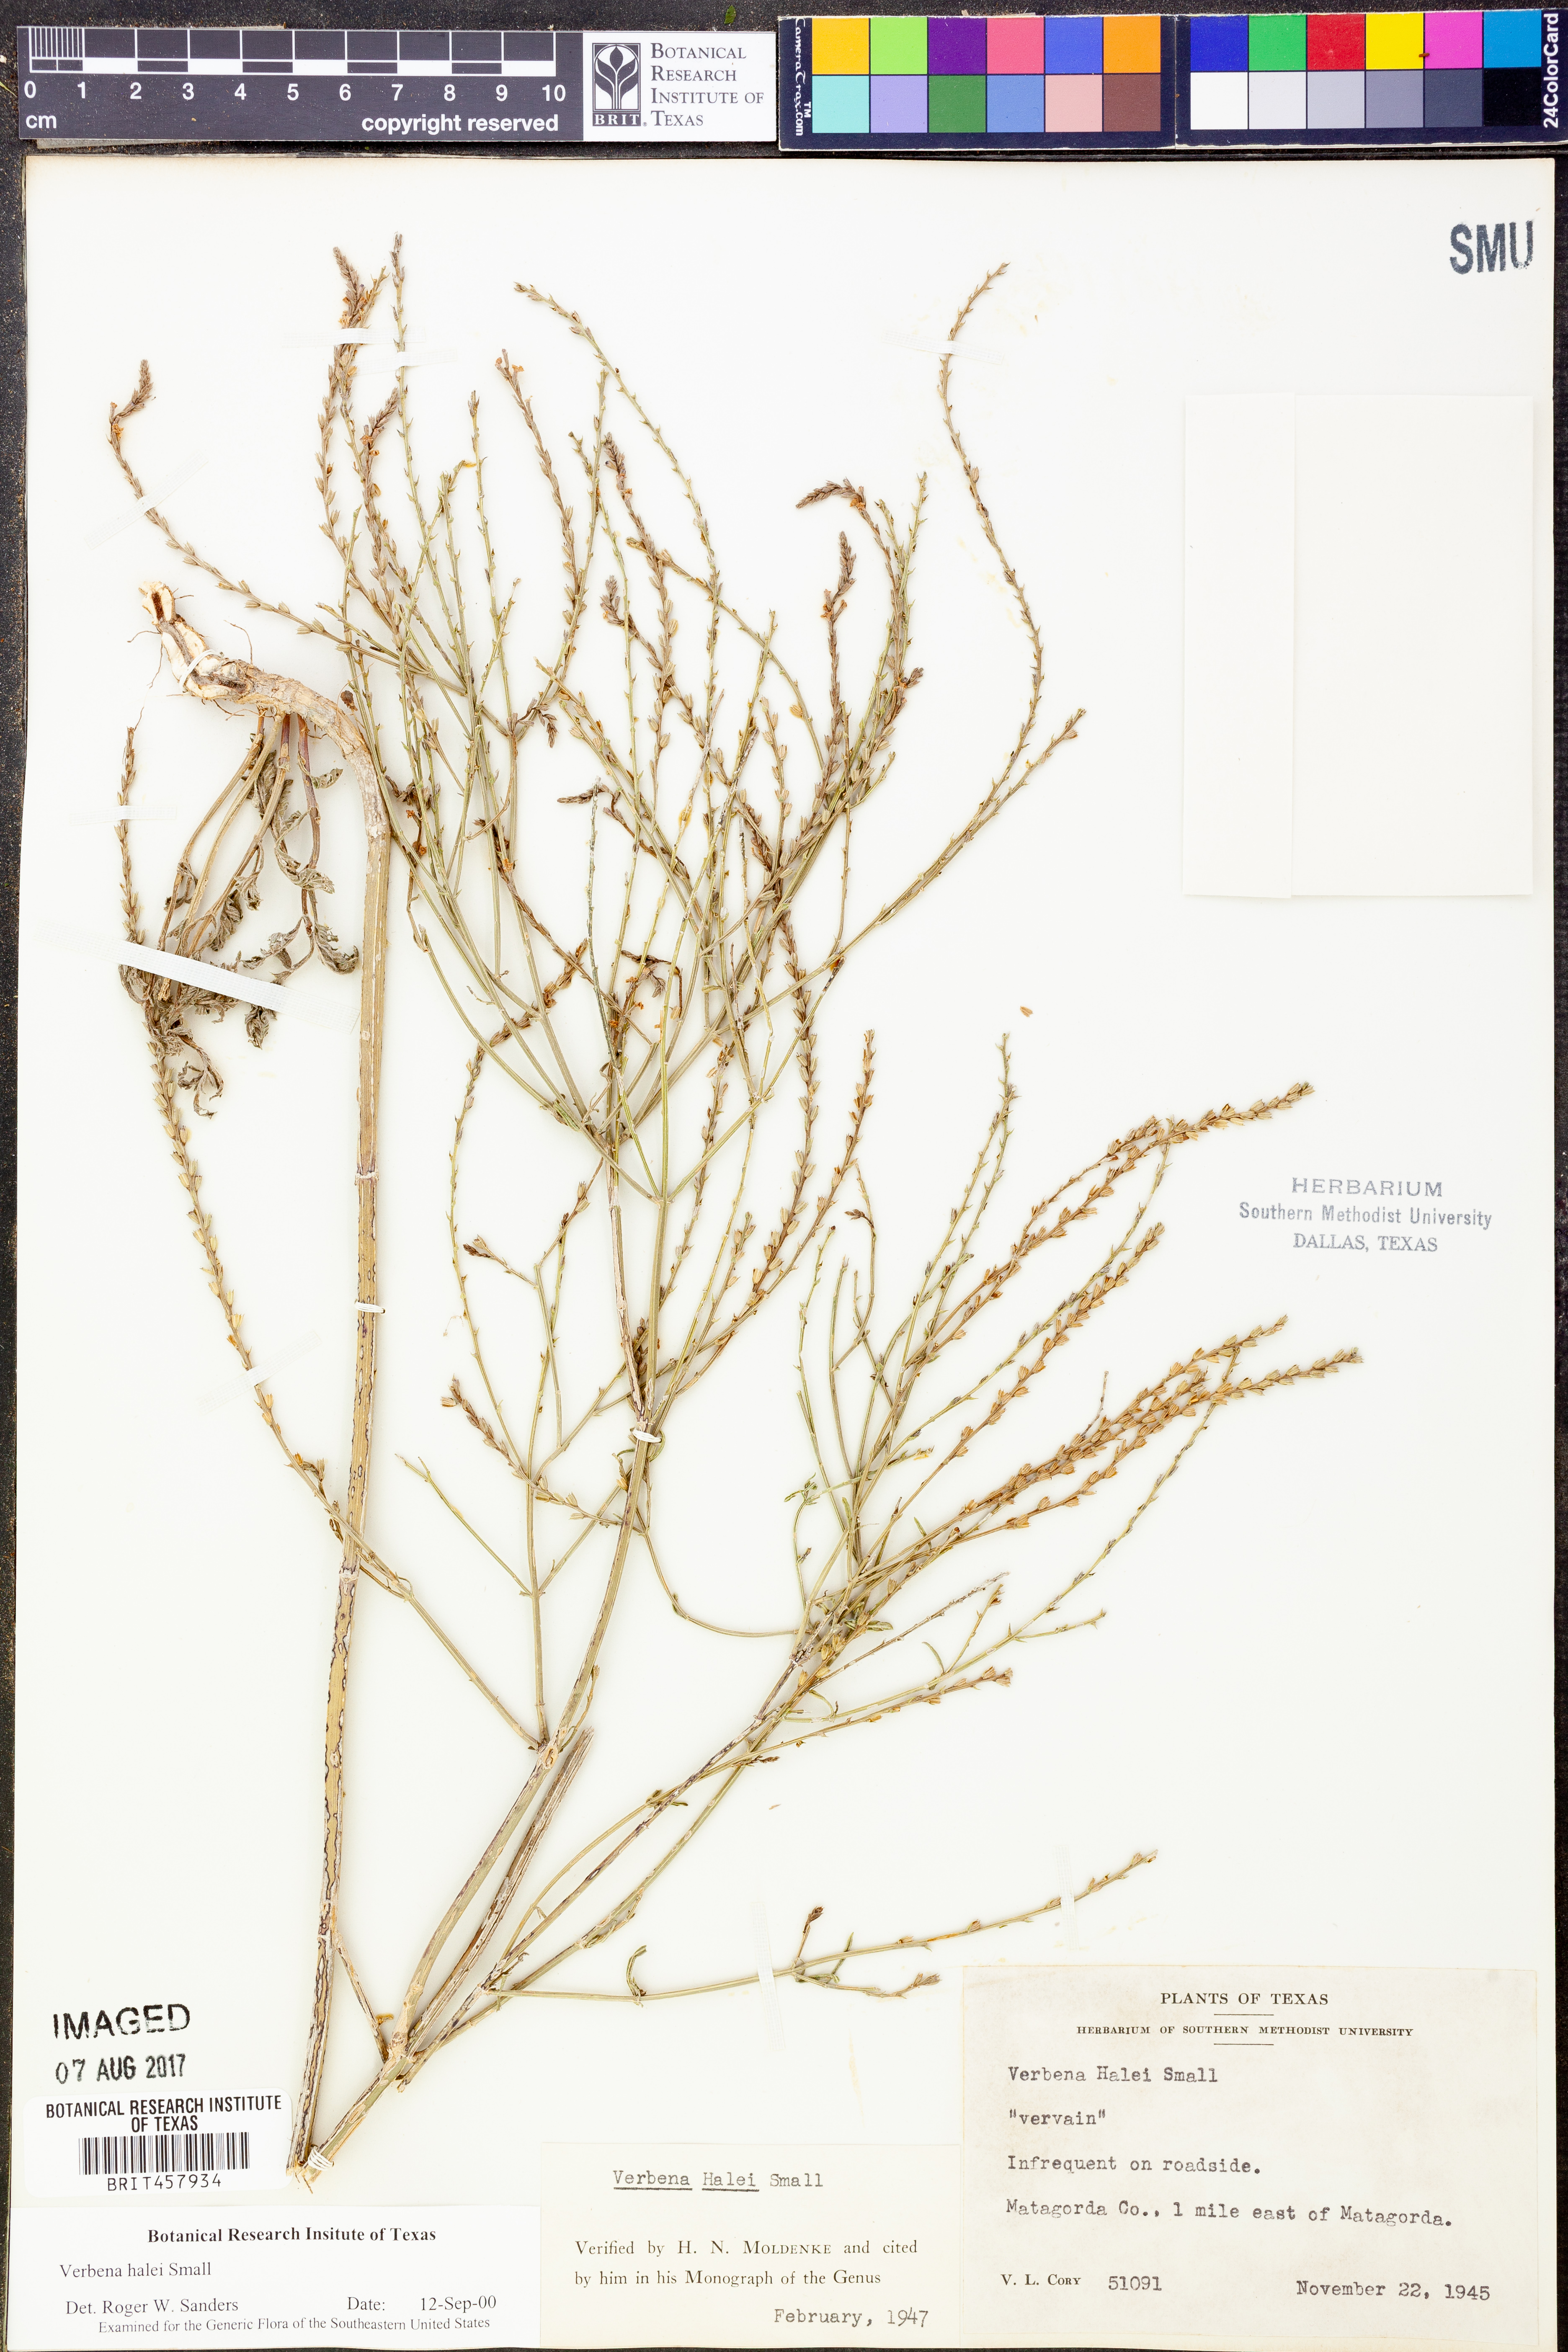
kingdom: Plantae
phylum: Tracheophyta
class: Magnoliopsida
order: Lamiales
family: Verbenaceae
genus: Verbena
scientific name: Verbena halei
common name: Texas vervain
